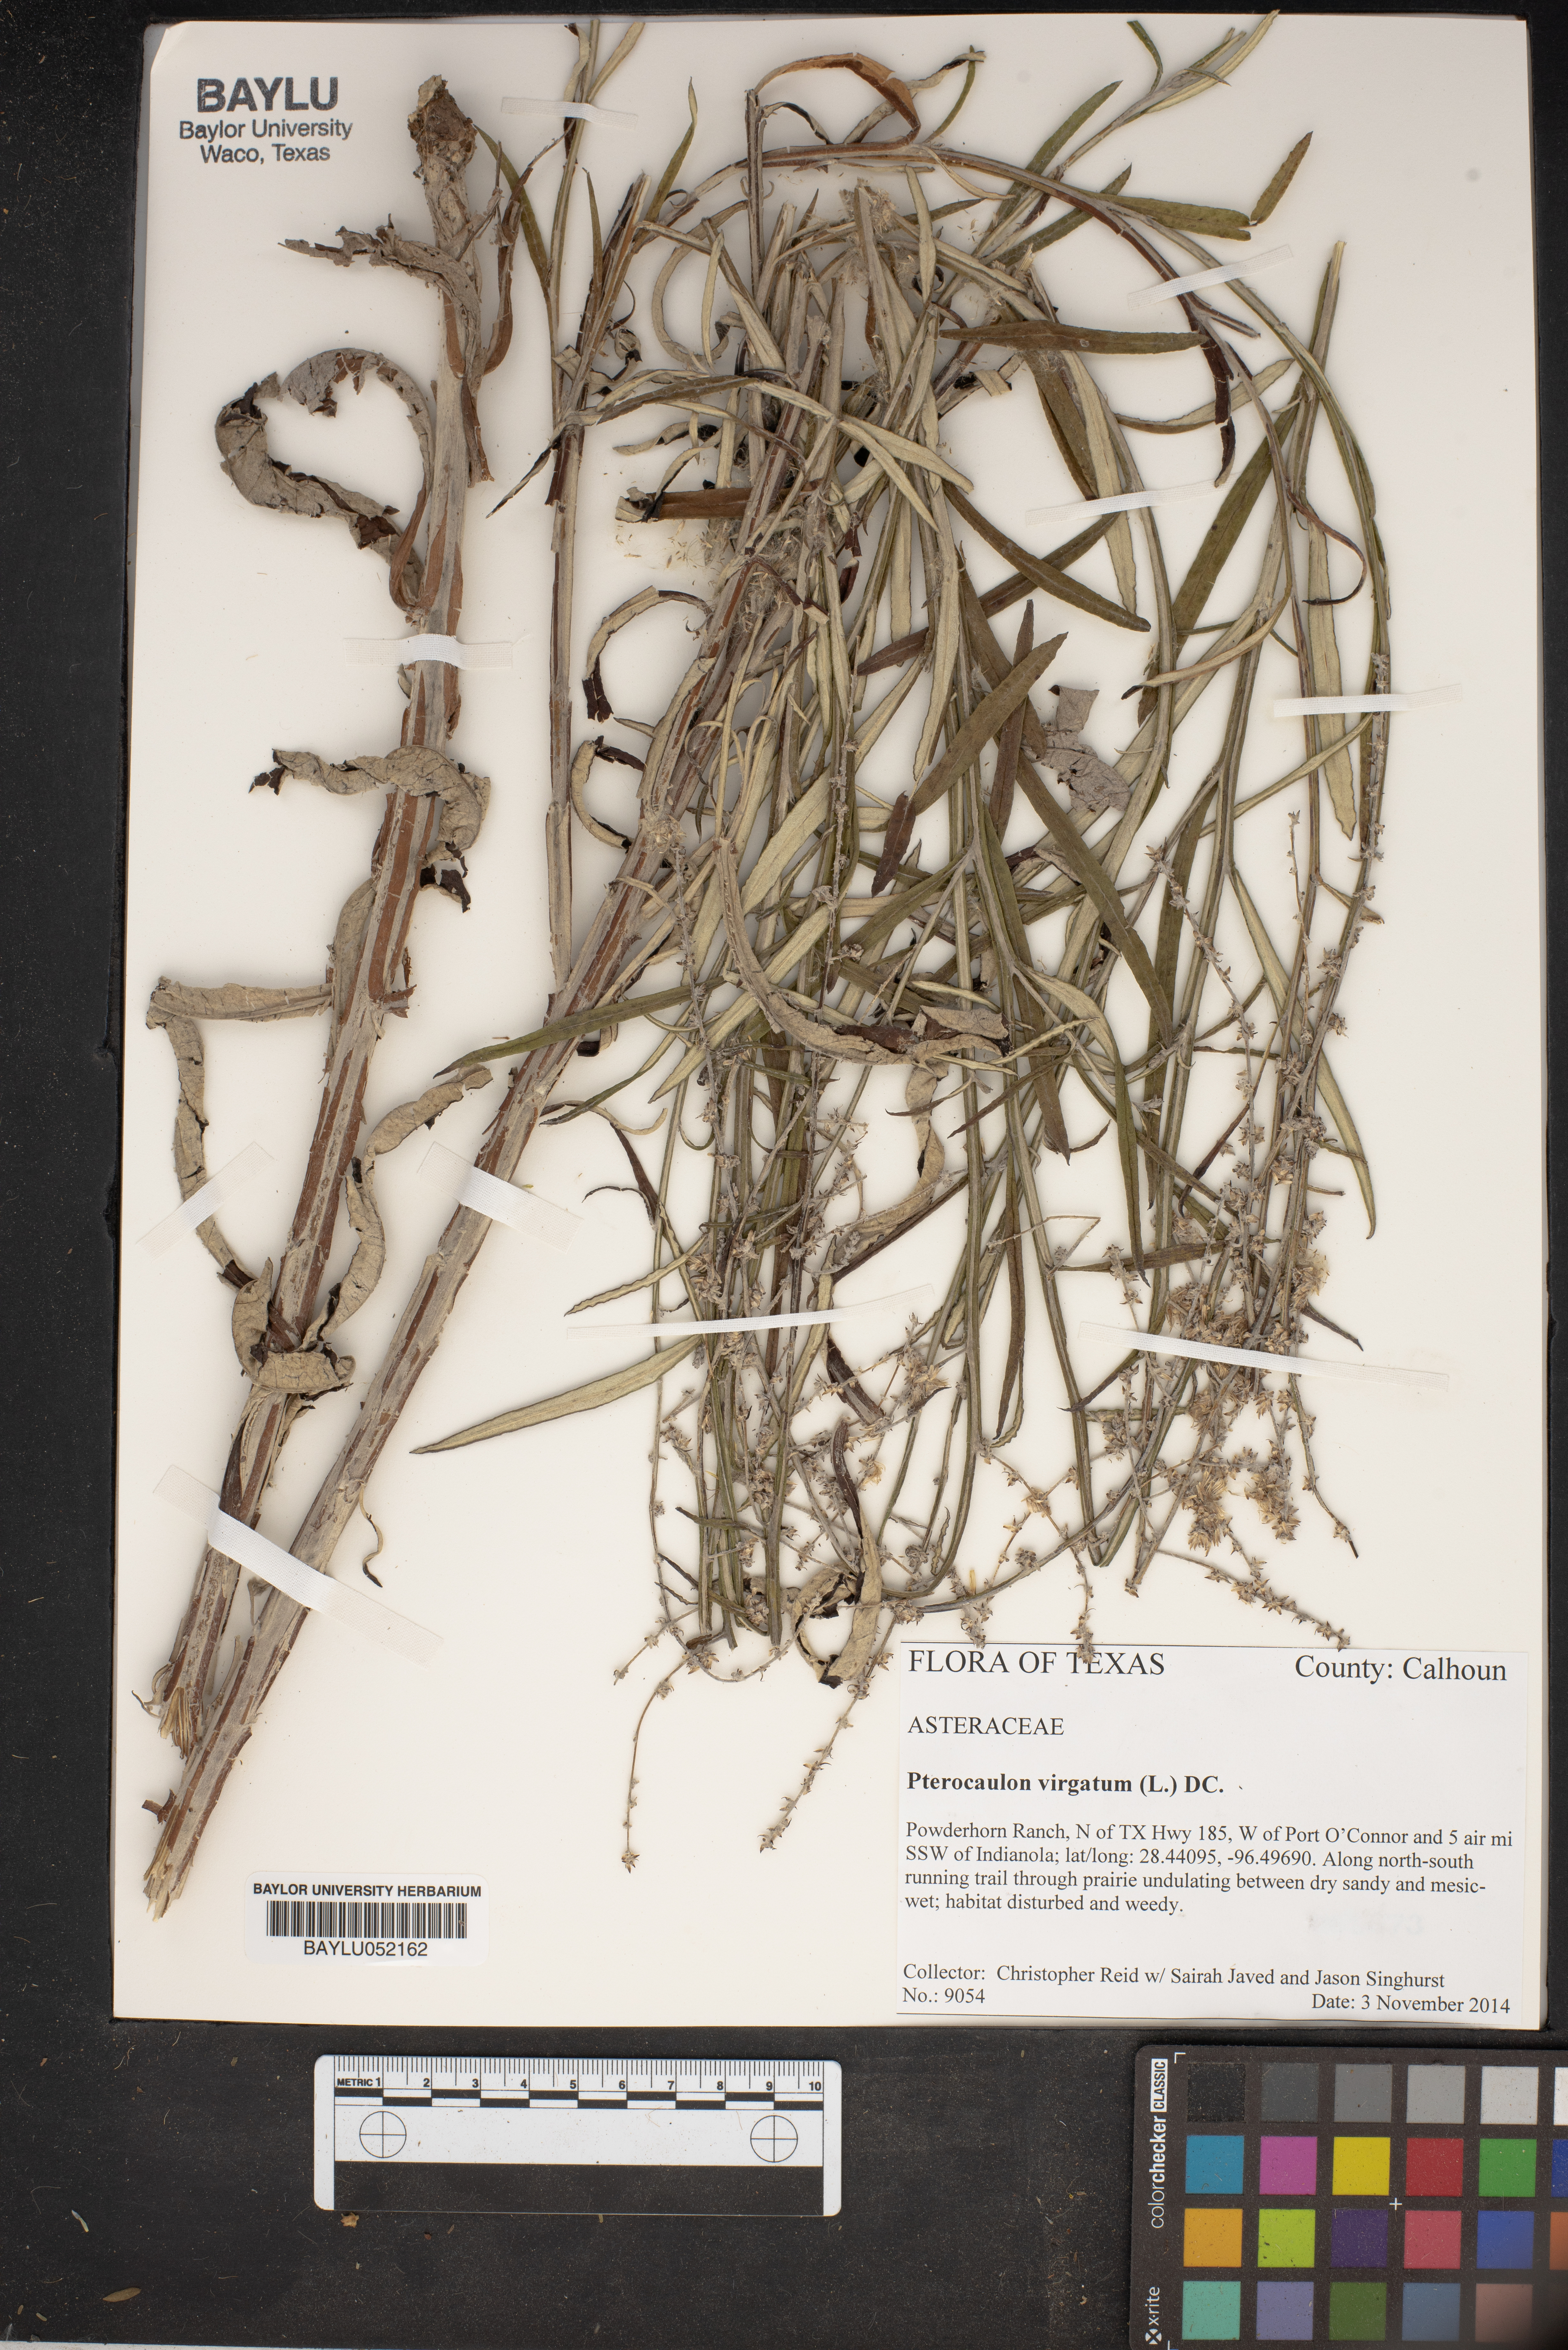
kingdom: Plantae
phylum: Tracheophyta
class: Magnoliopsida
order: Asterales
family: Asteraceae
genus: Pterocaulon
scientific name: Pterocaulon virgatum
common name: Wand blackroot
